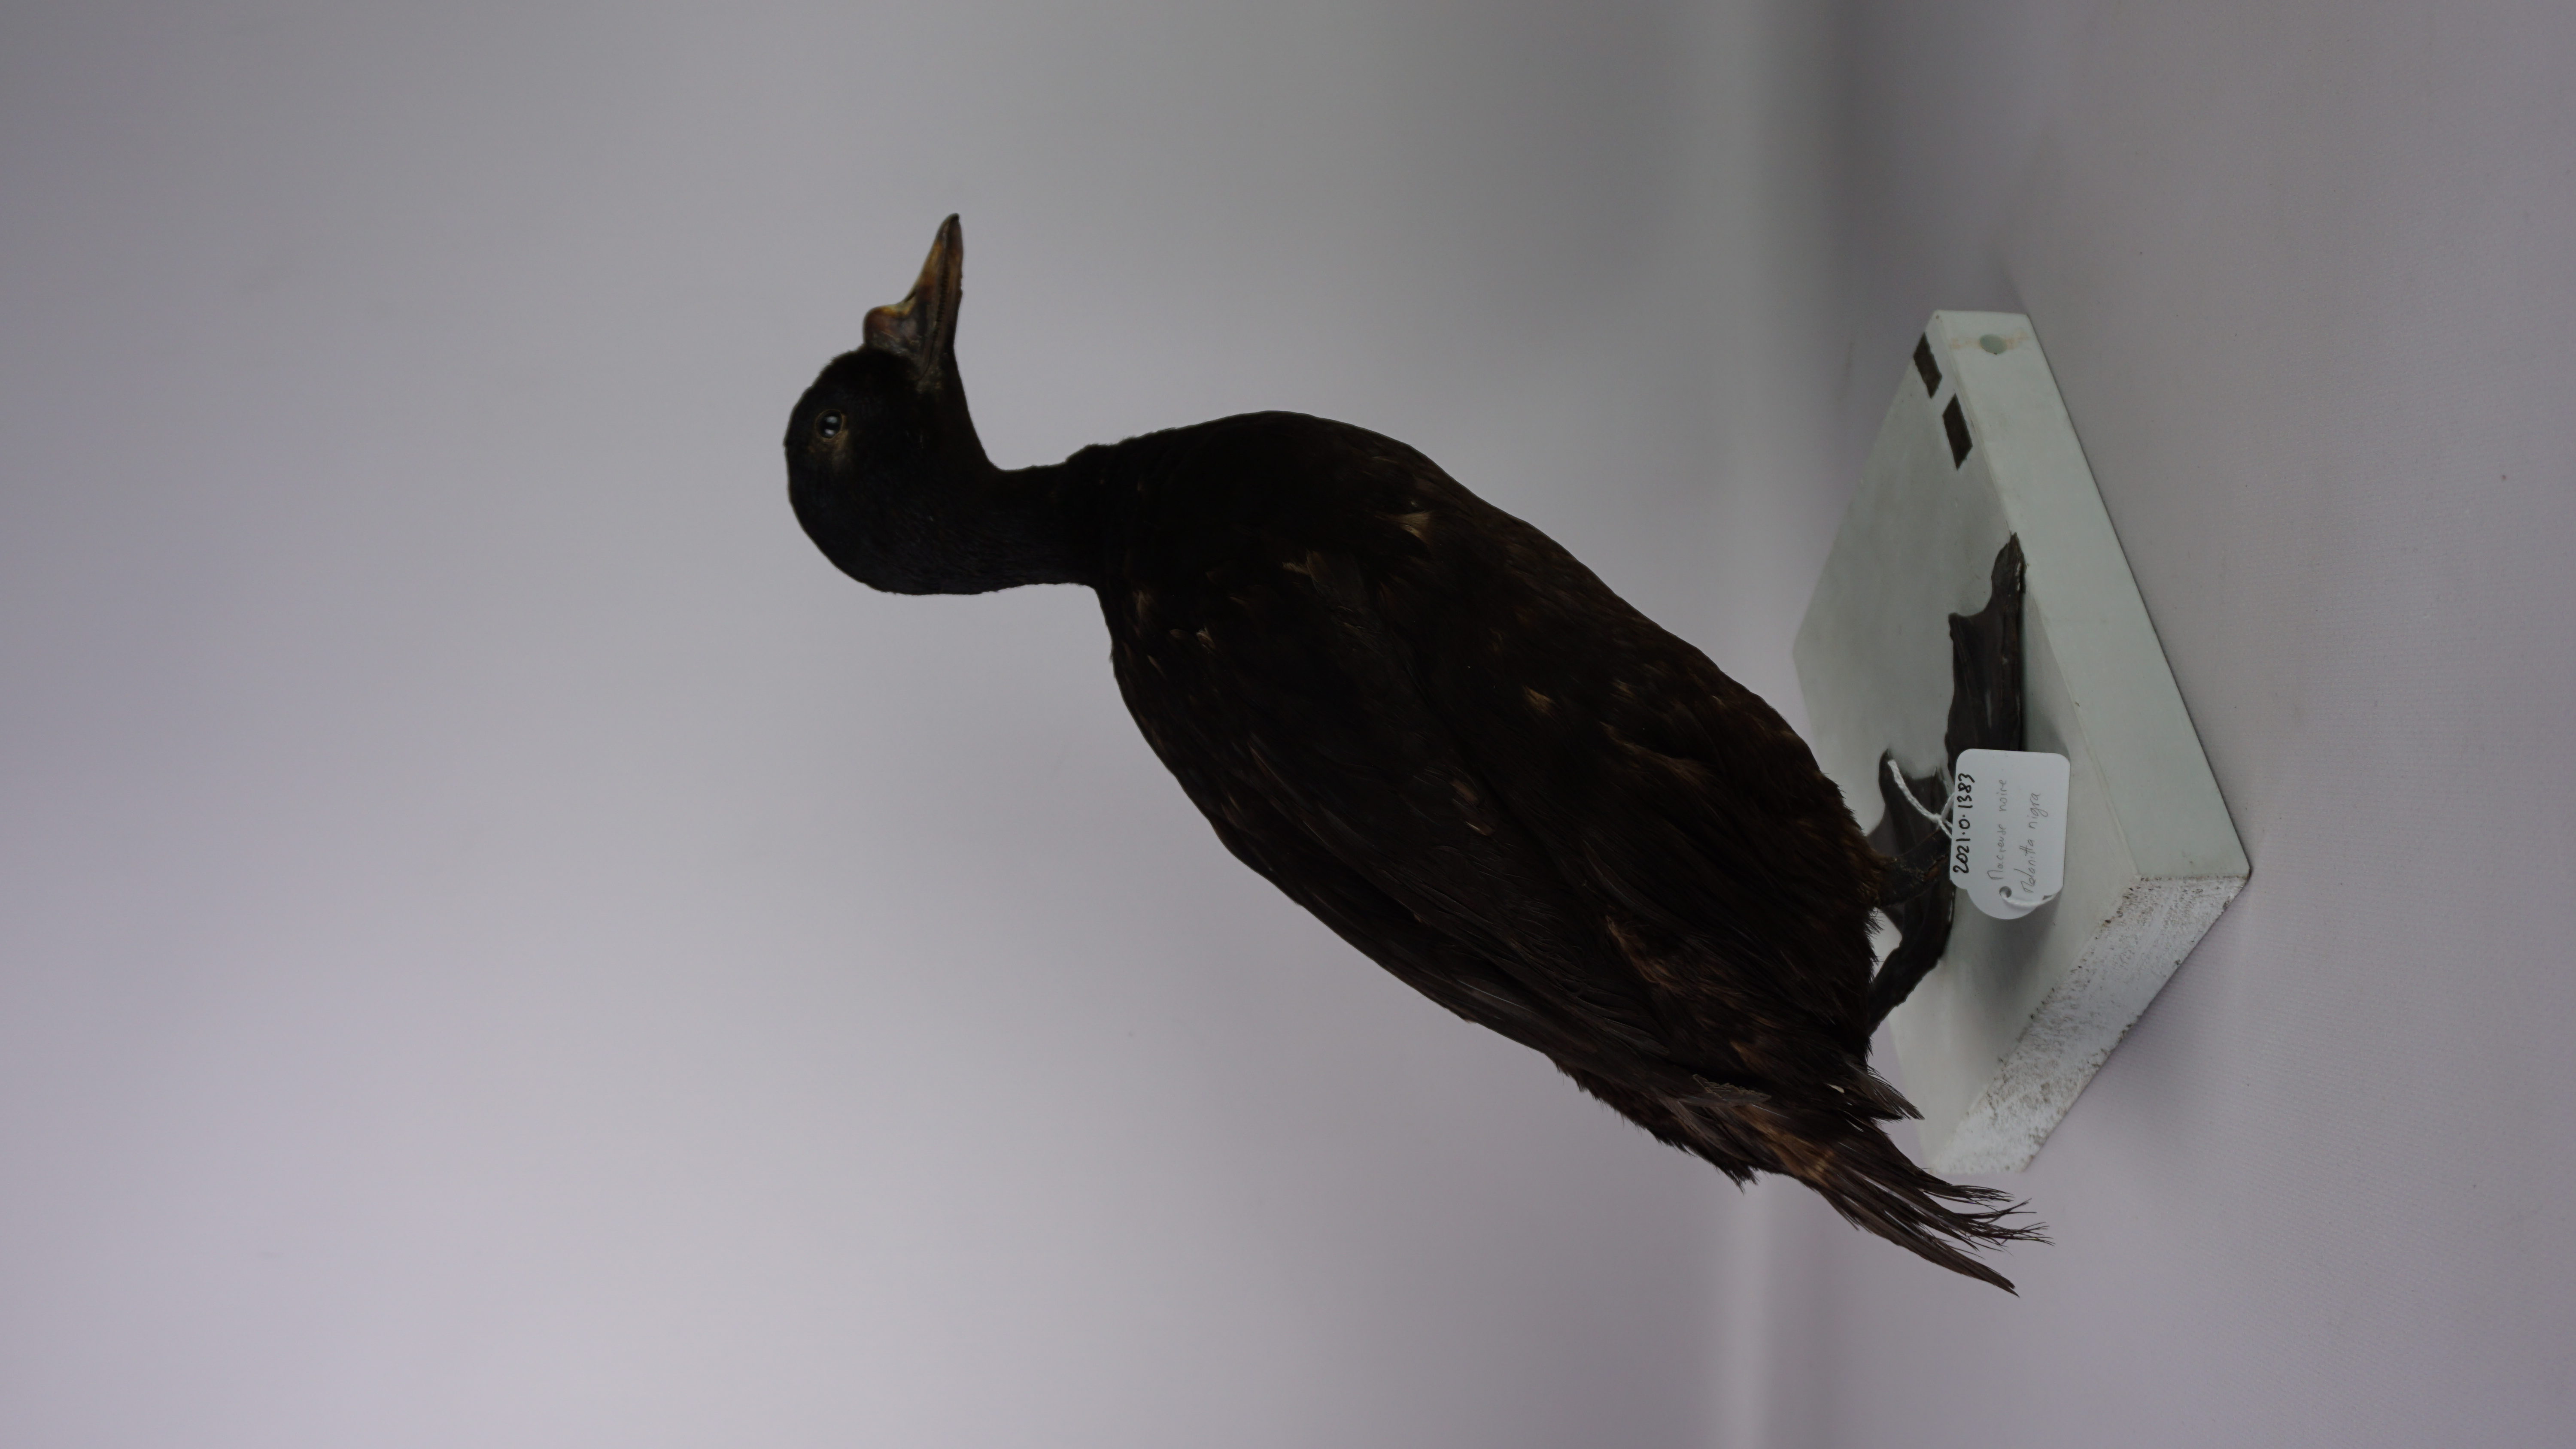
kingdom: Animalia
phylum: Chordata
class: Aves
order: Anseriformes
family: Anatidae
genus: Melanitta
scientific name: Melanitta nigra
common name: Common scoter
